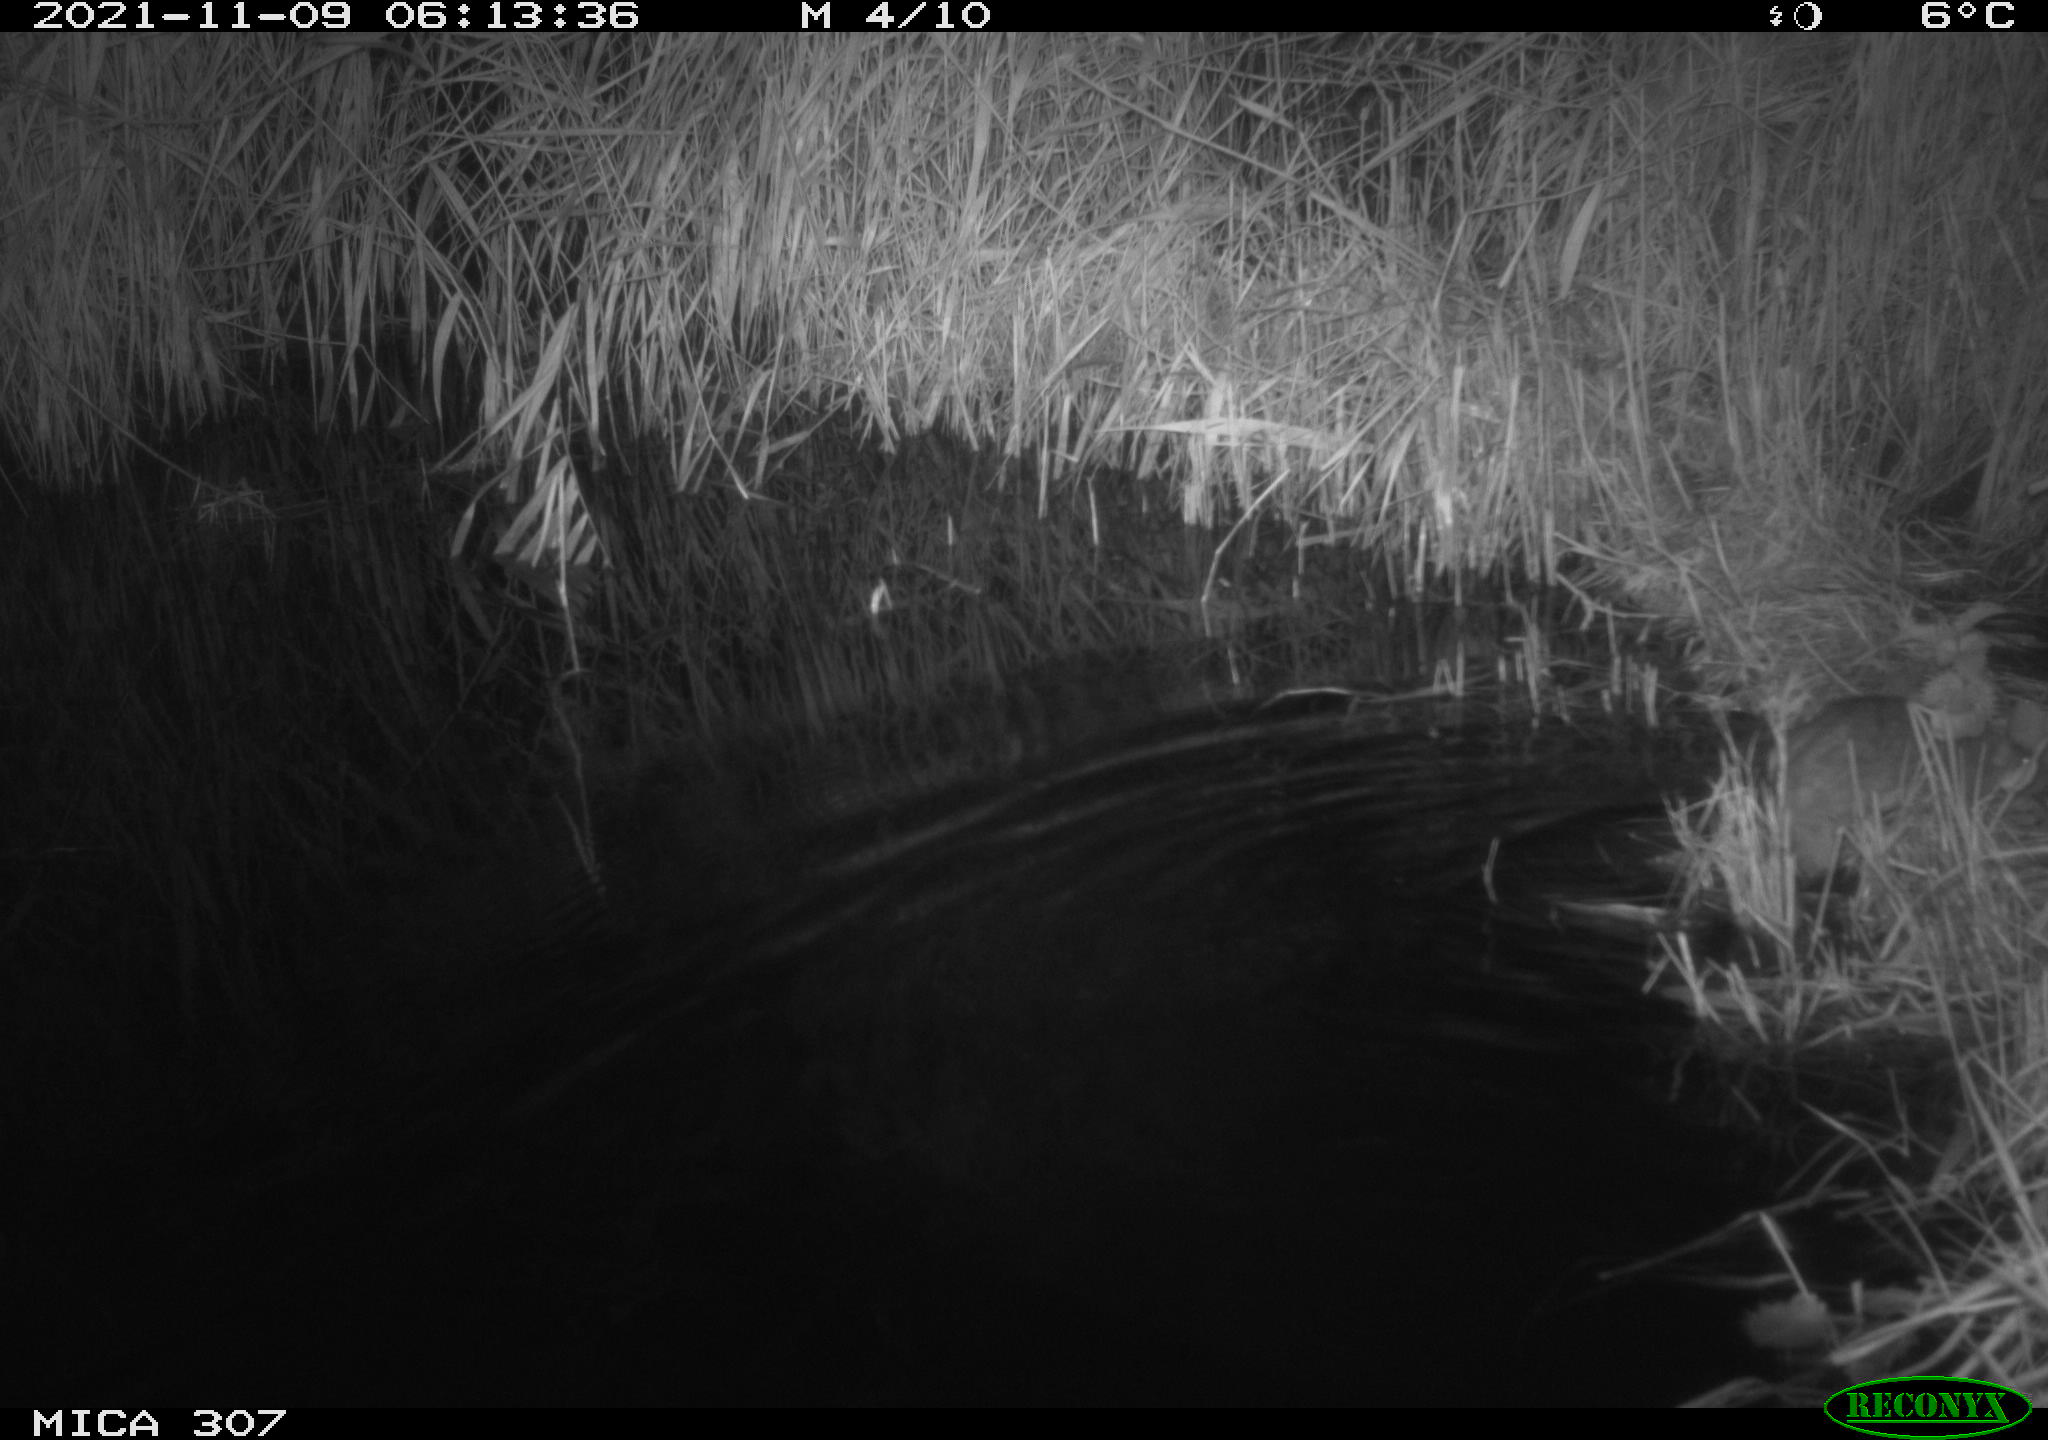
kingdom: Animalia
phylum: Chordata
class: Mammalia
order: Rodentia
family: Muridae
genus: Rattus
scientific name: Rattus norvegicus
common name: Brown rat
